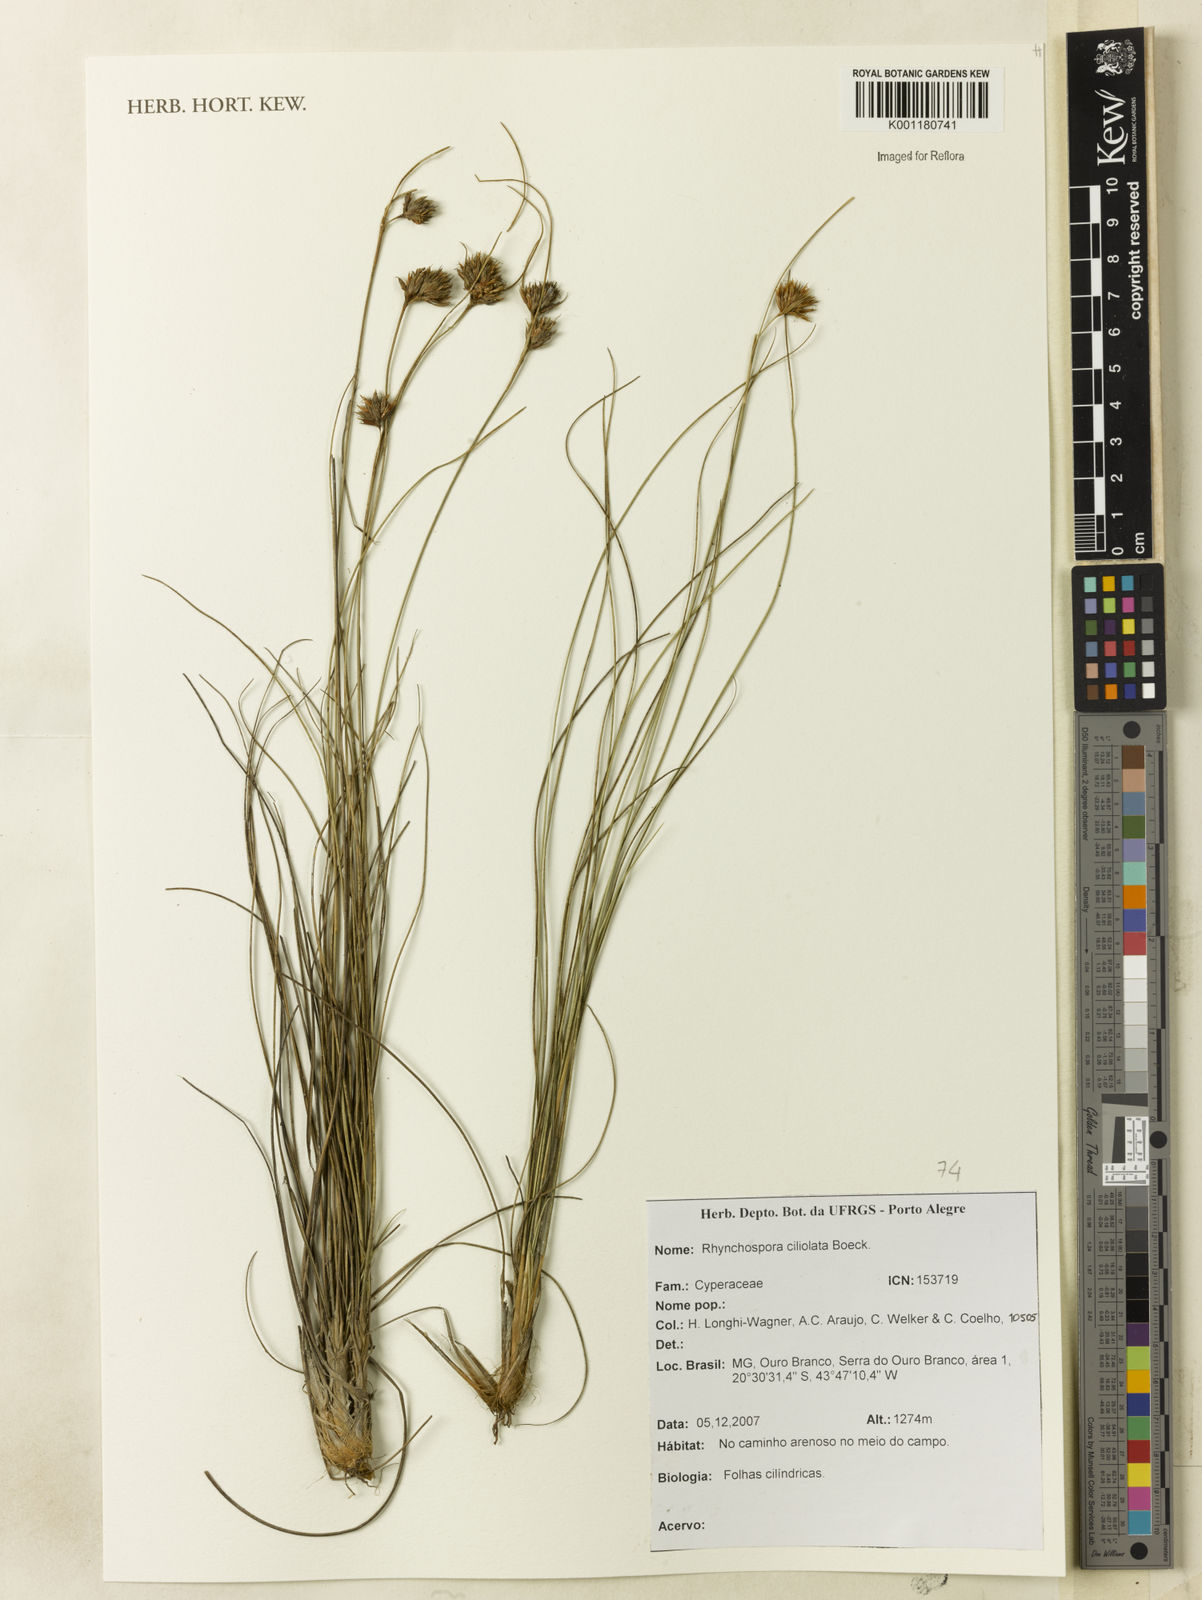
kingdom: Plantae
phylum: Tracheophyta
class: Liliopsida
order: Poales
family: Cyperaceae
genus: Rhynchospora
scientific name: Rhynchospora ciliolata
